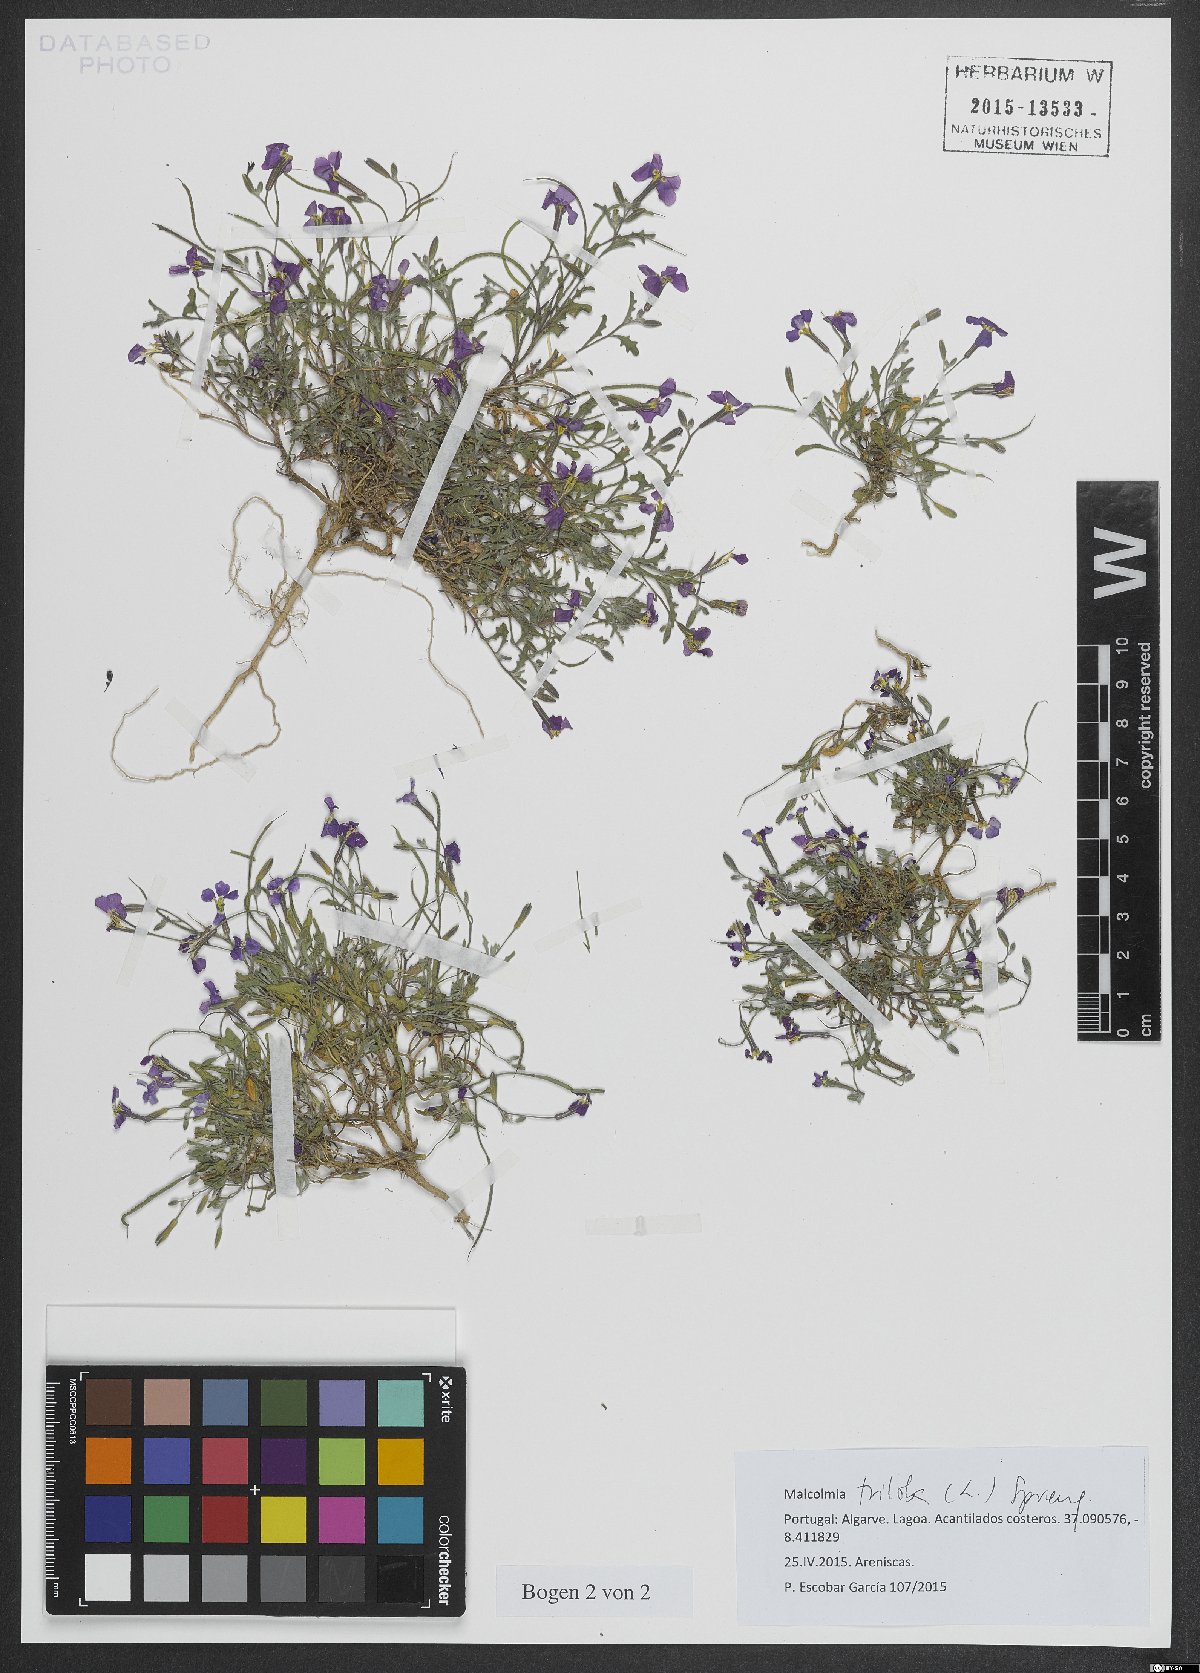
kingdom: Plantae
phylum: Tracheophyta
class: Magnoliopsida
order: Brassicales
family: Brassicaceae
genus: Marcuskochia
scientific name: Marcuskochia triloba
